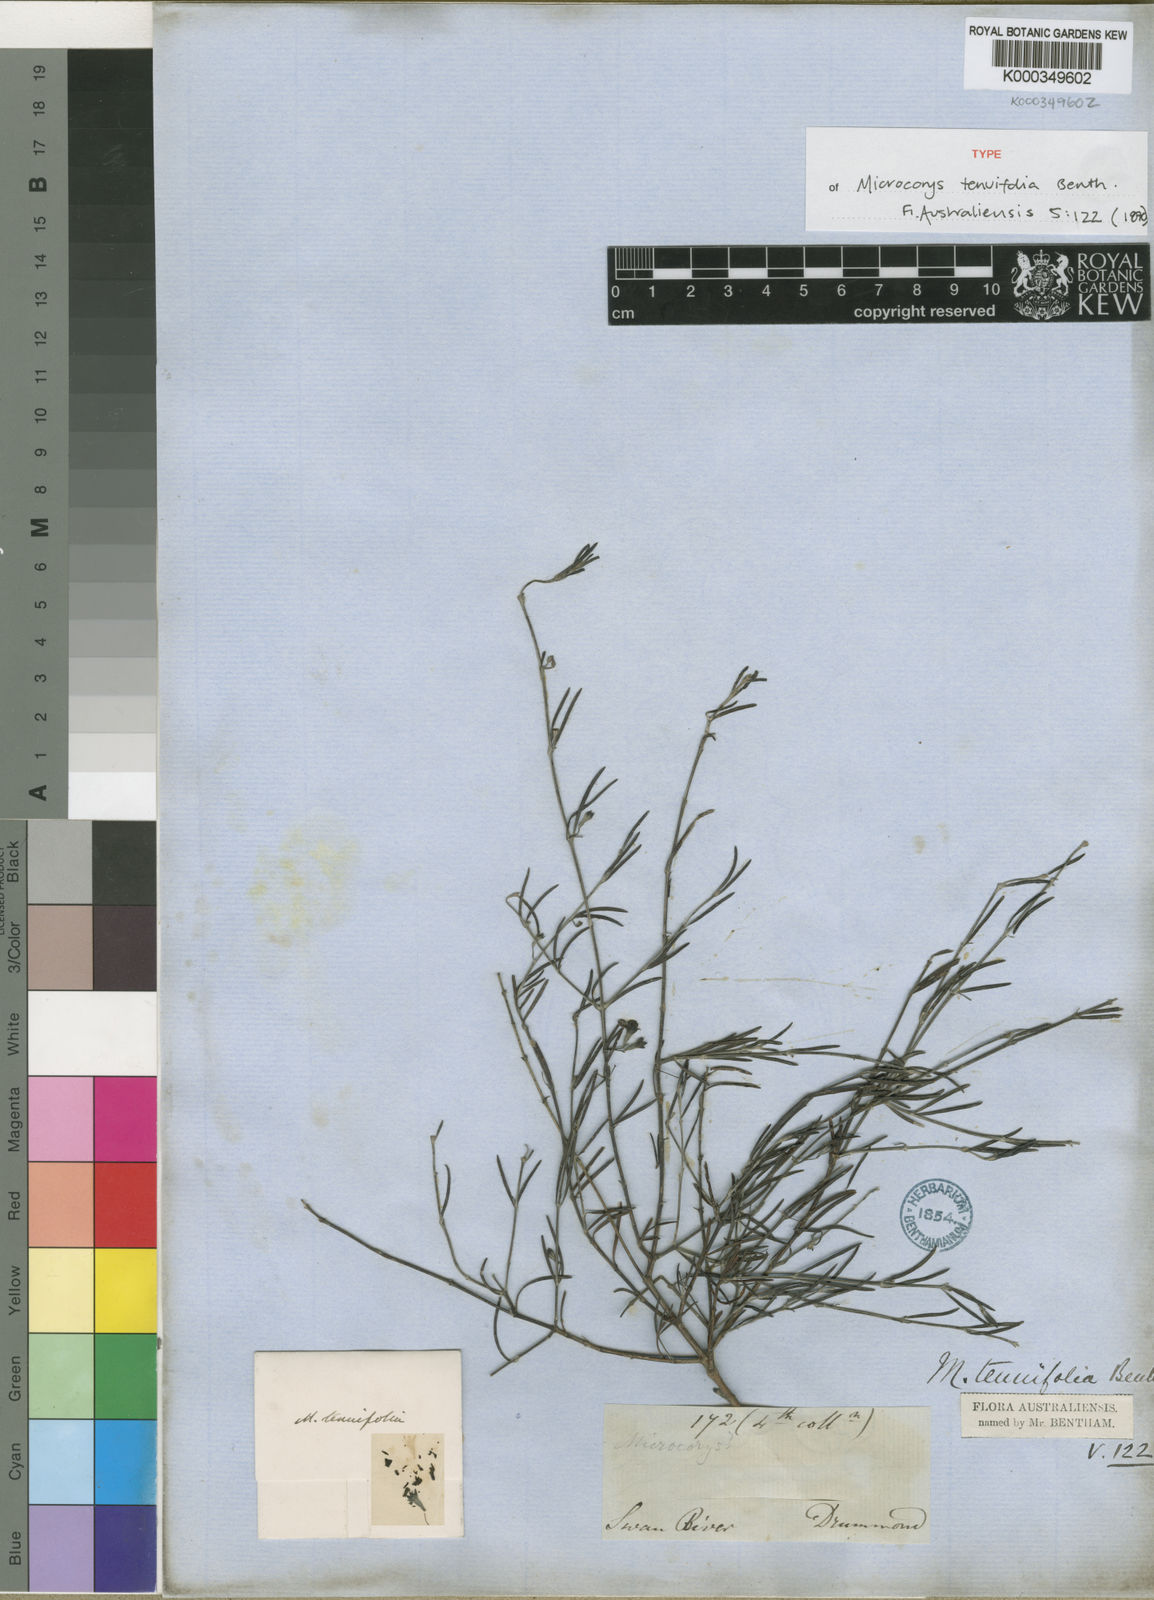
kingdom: Plantae
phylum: Tracheophyta
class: Magnoliopsida
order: Lamiales
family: Lamiaceae
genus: Microcorys
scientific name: Microcorys tenuifolia
